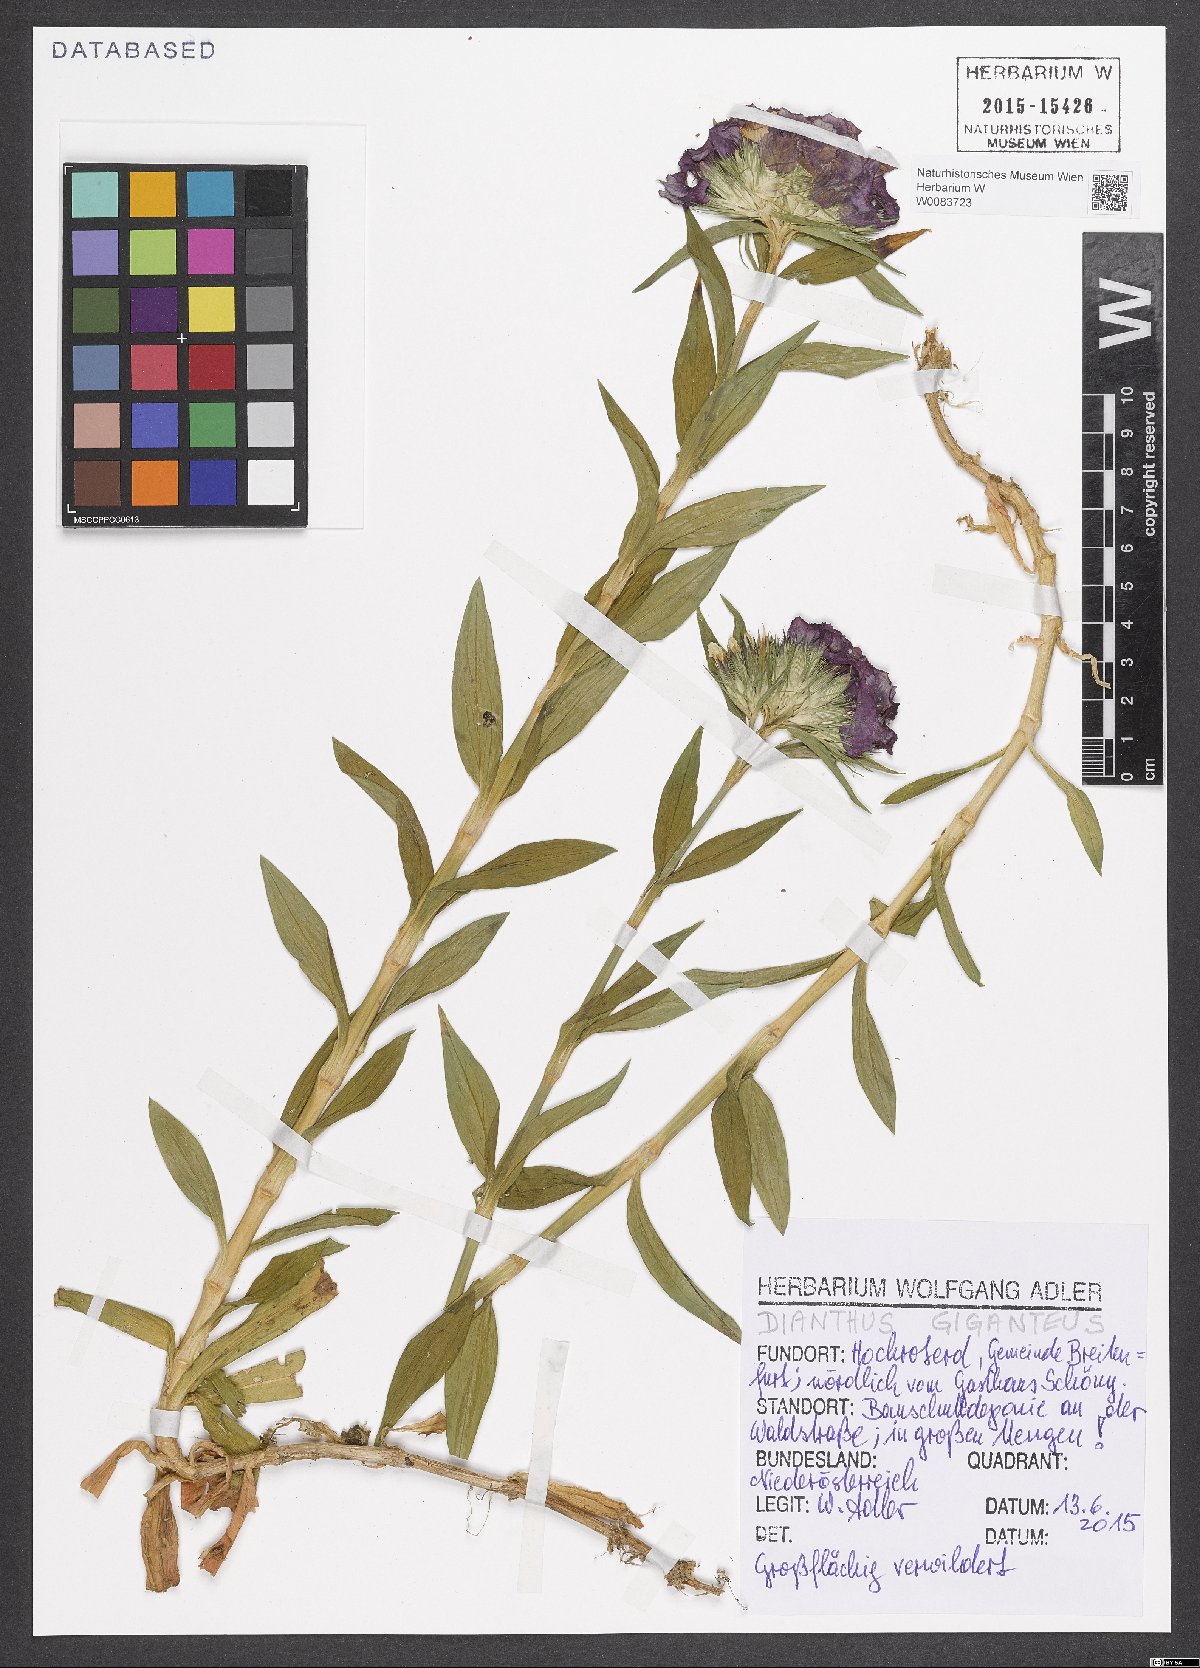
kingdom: Plantae
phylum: Tracheophyta
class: Magnoliopsida
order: Caryophyllales
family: Caryophyllaceae
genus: Dianthus
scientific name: Dianthus giganteus
